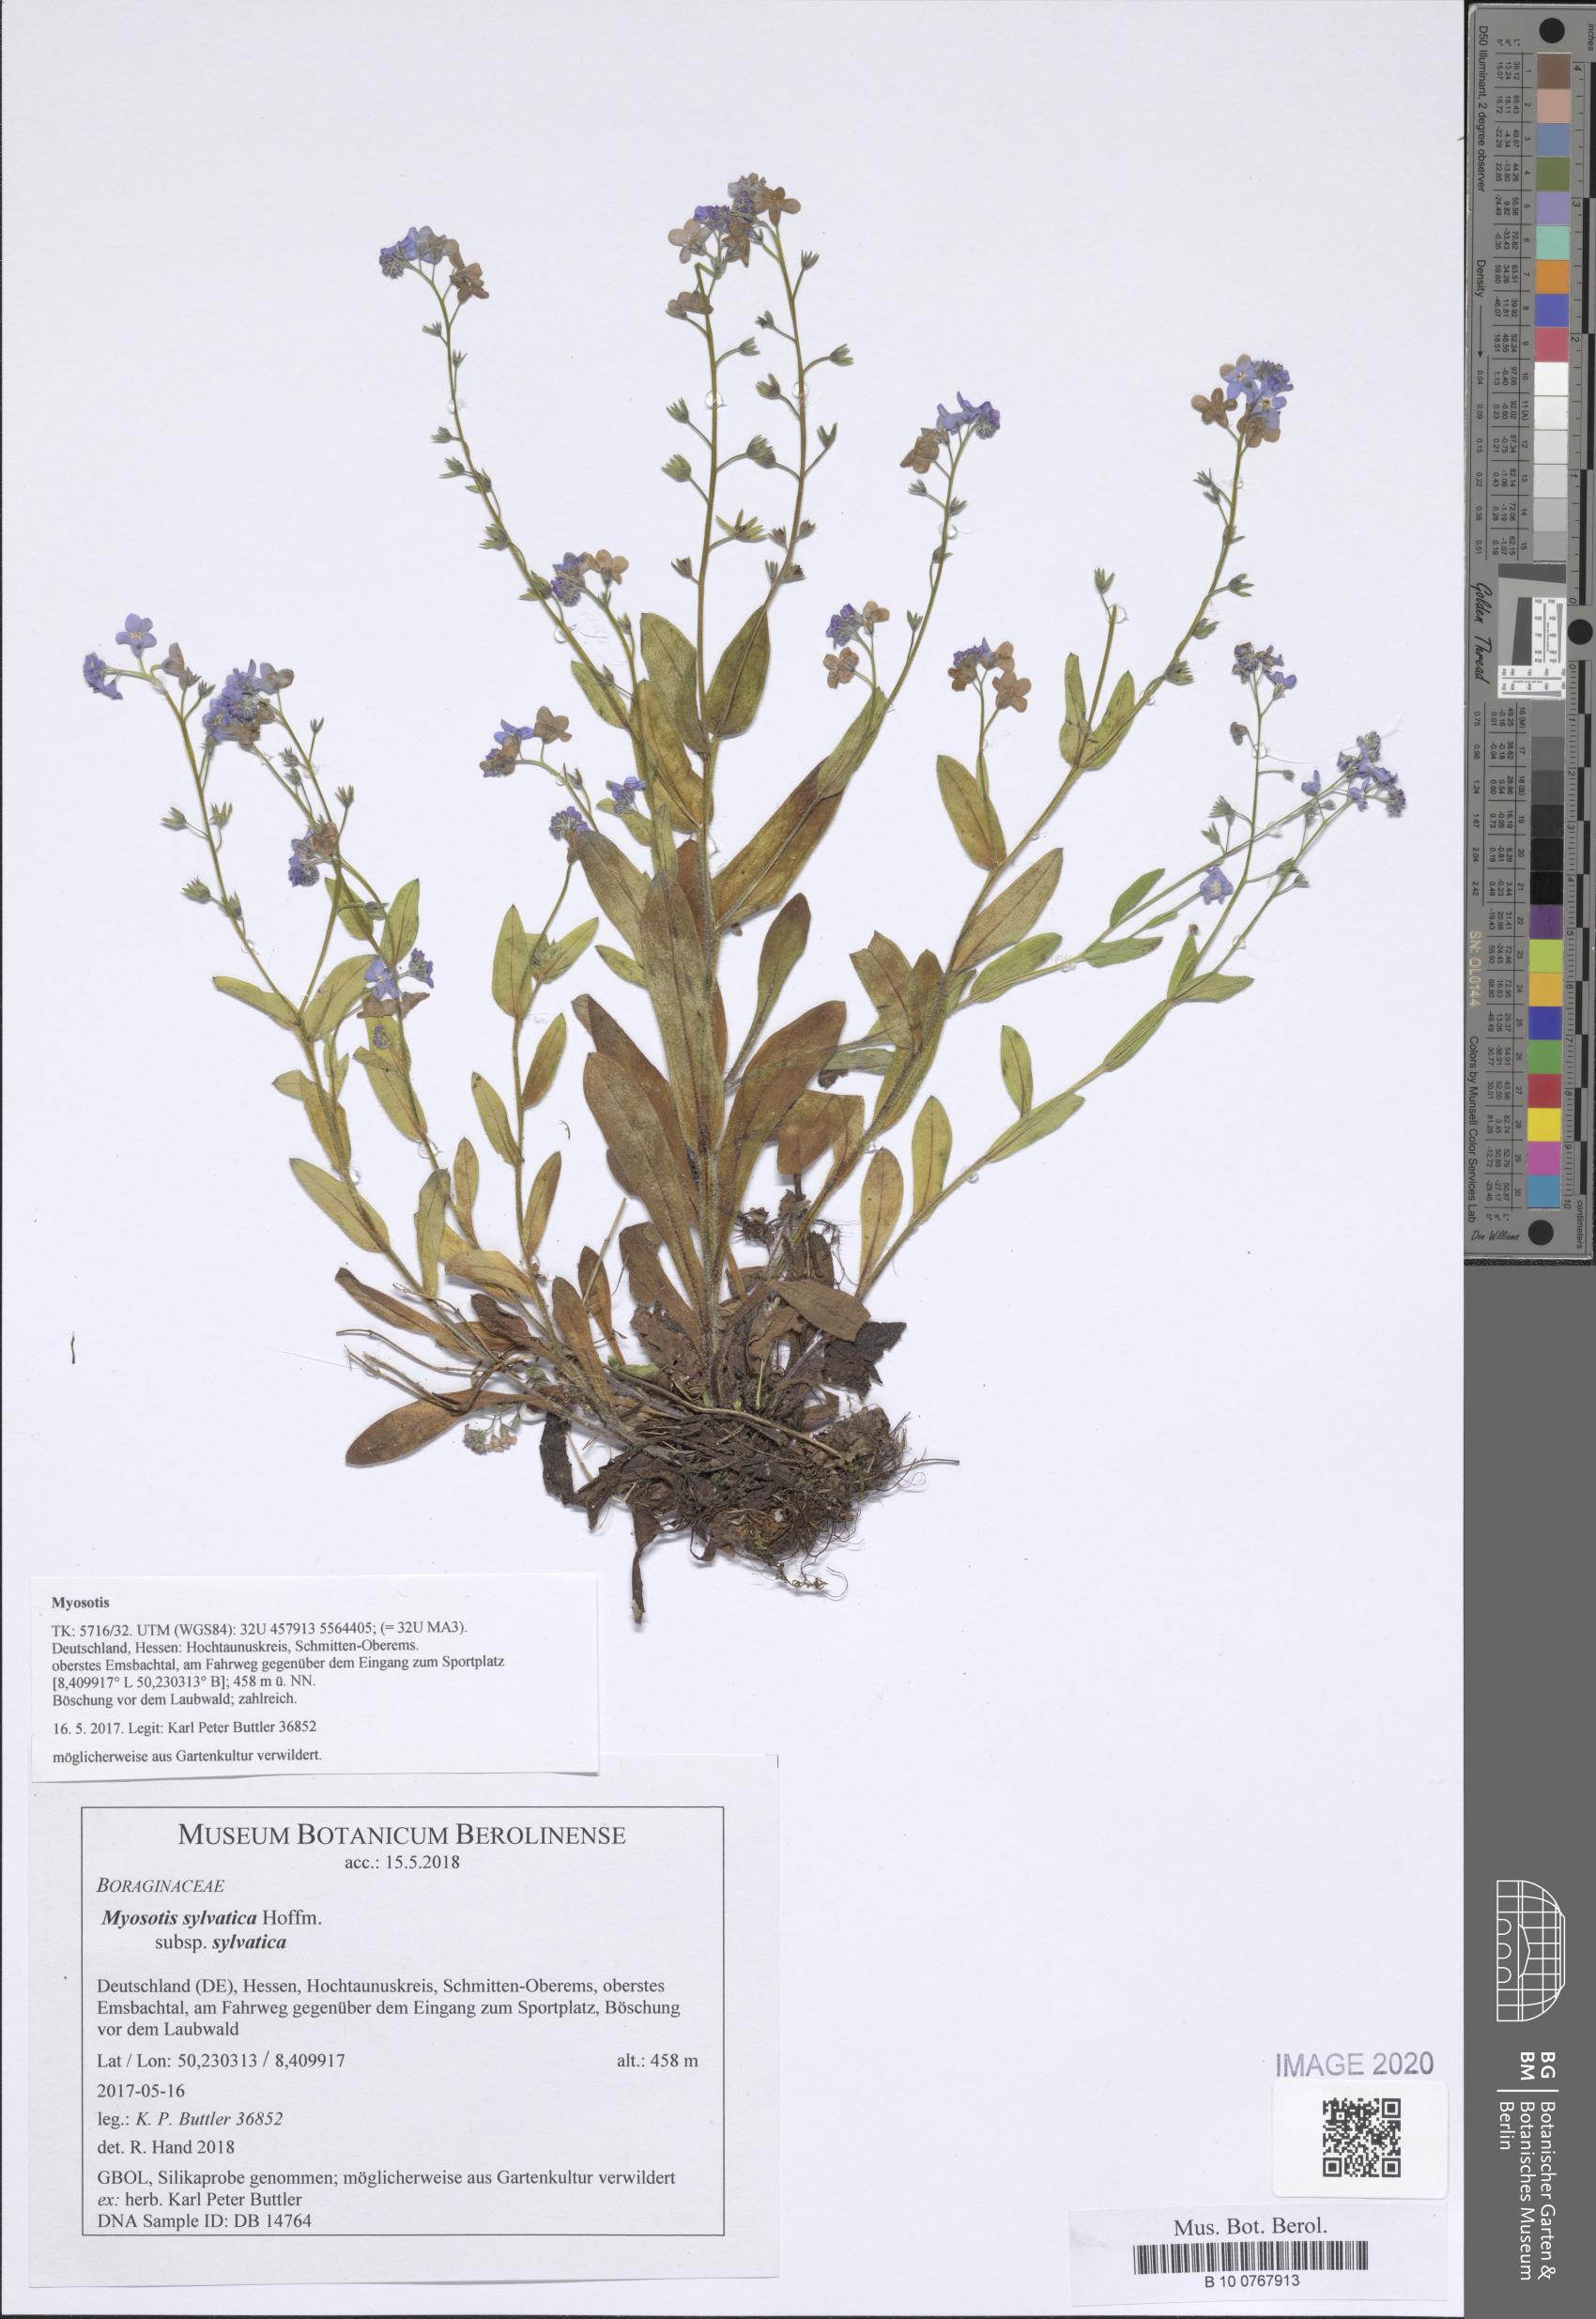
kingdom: Plantae
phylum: Tracheophyta
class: Magnoliopsida
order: Boraginales
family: Boraginaceae
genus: Myosotis
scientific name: Myosotis sylvatica
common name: Wood forget-me-not
